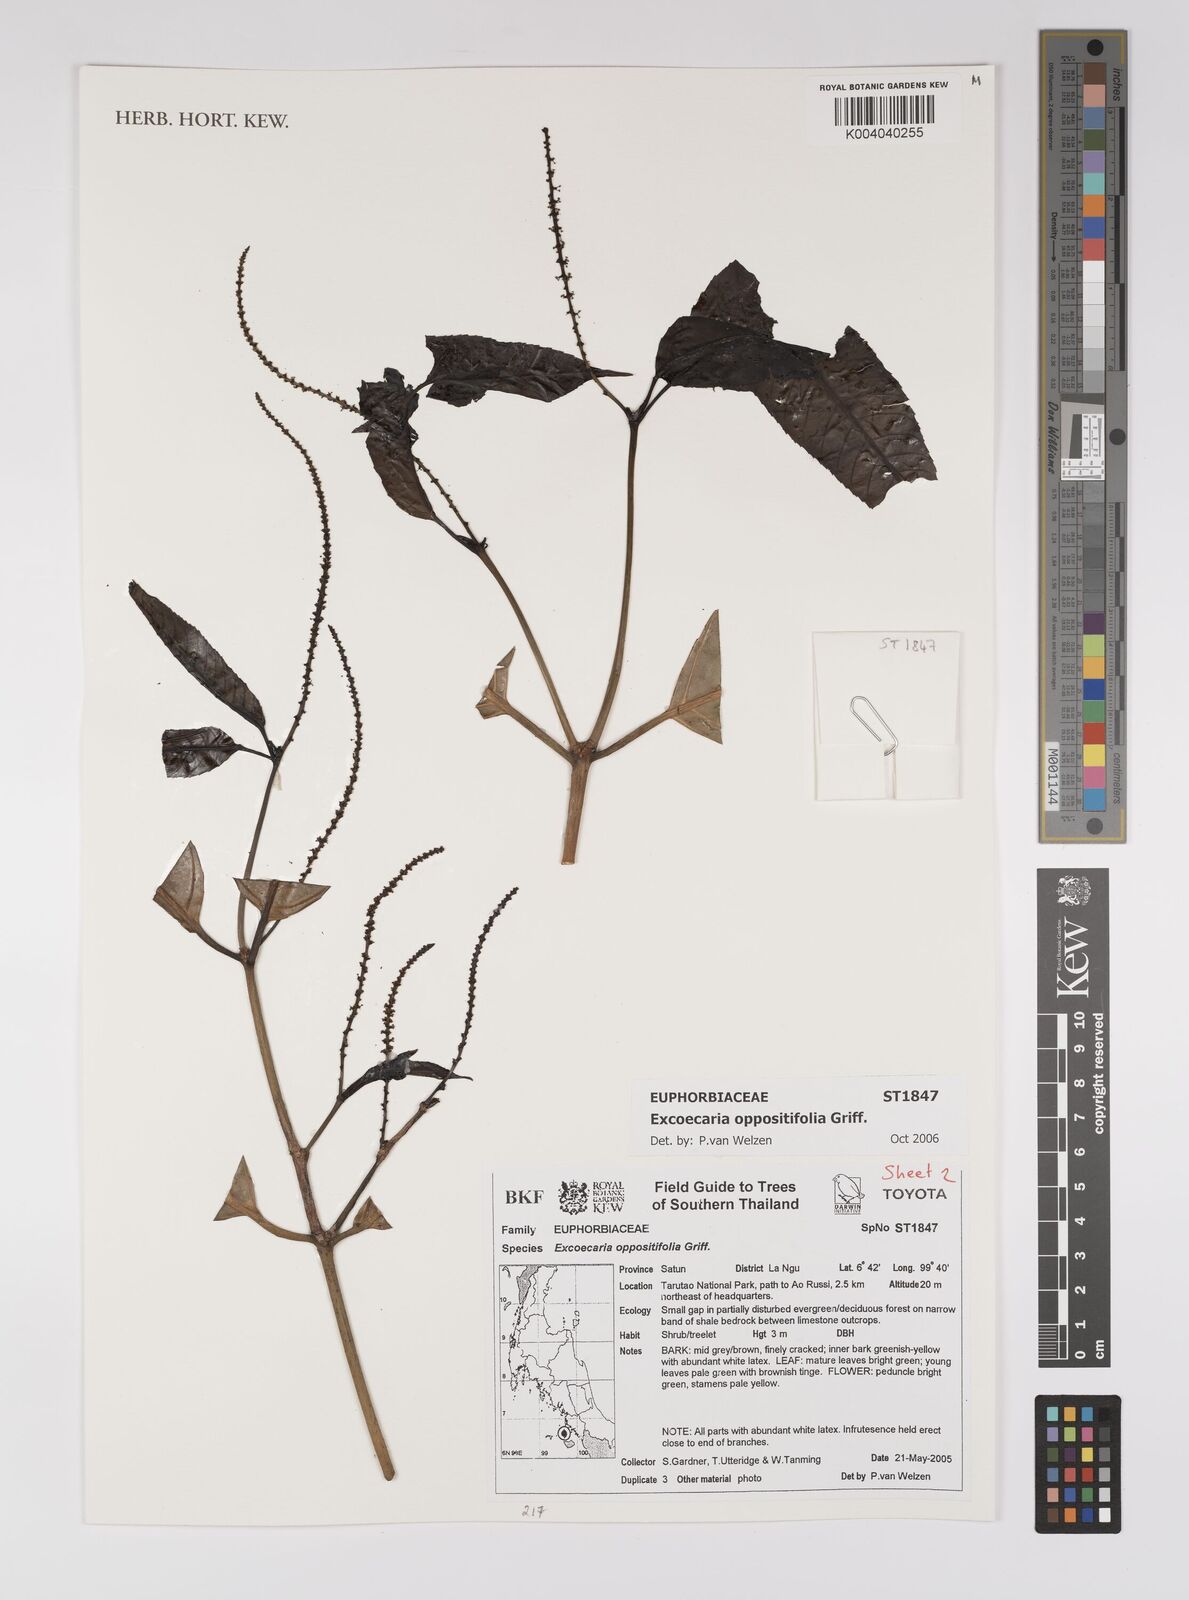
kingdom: Plantae
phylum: Tracheophyta
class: Magnoliopsida
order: Malpighiales
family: Euphorbiaceae
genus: Excoecaria
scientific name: Excoecaria oppositifolia
